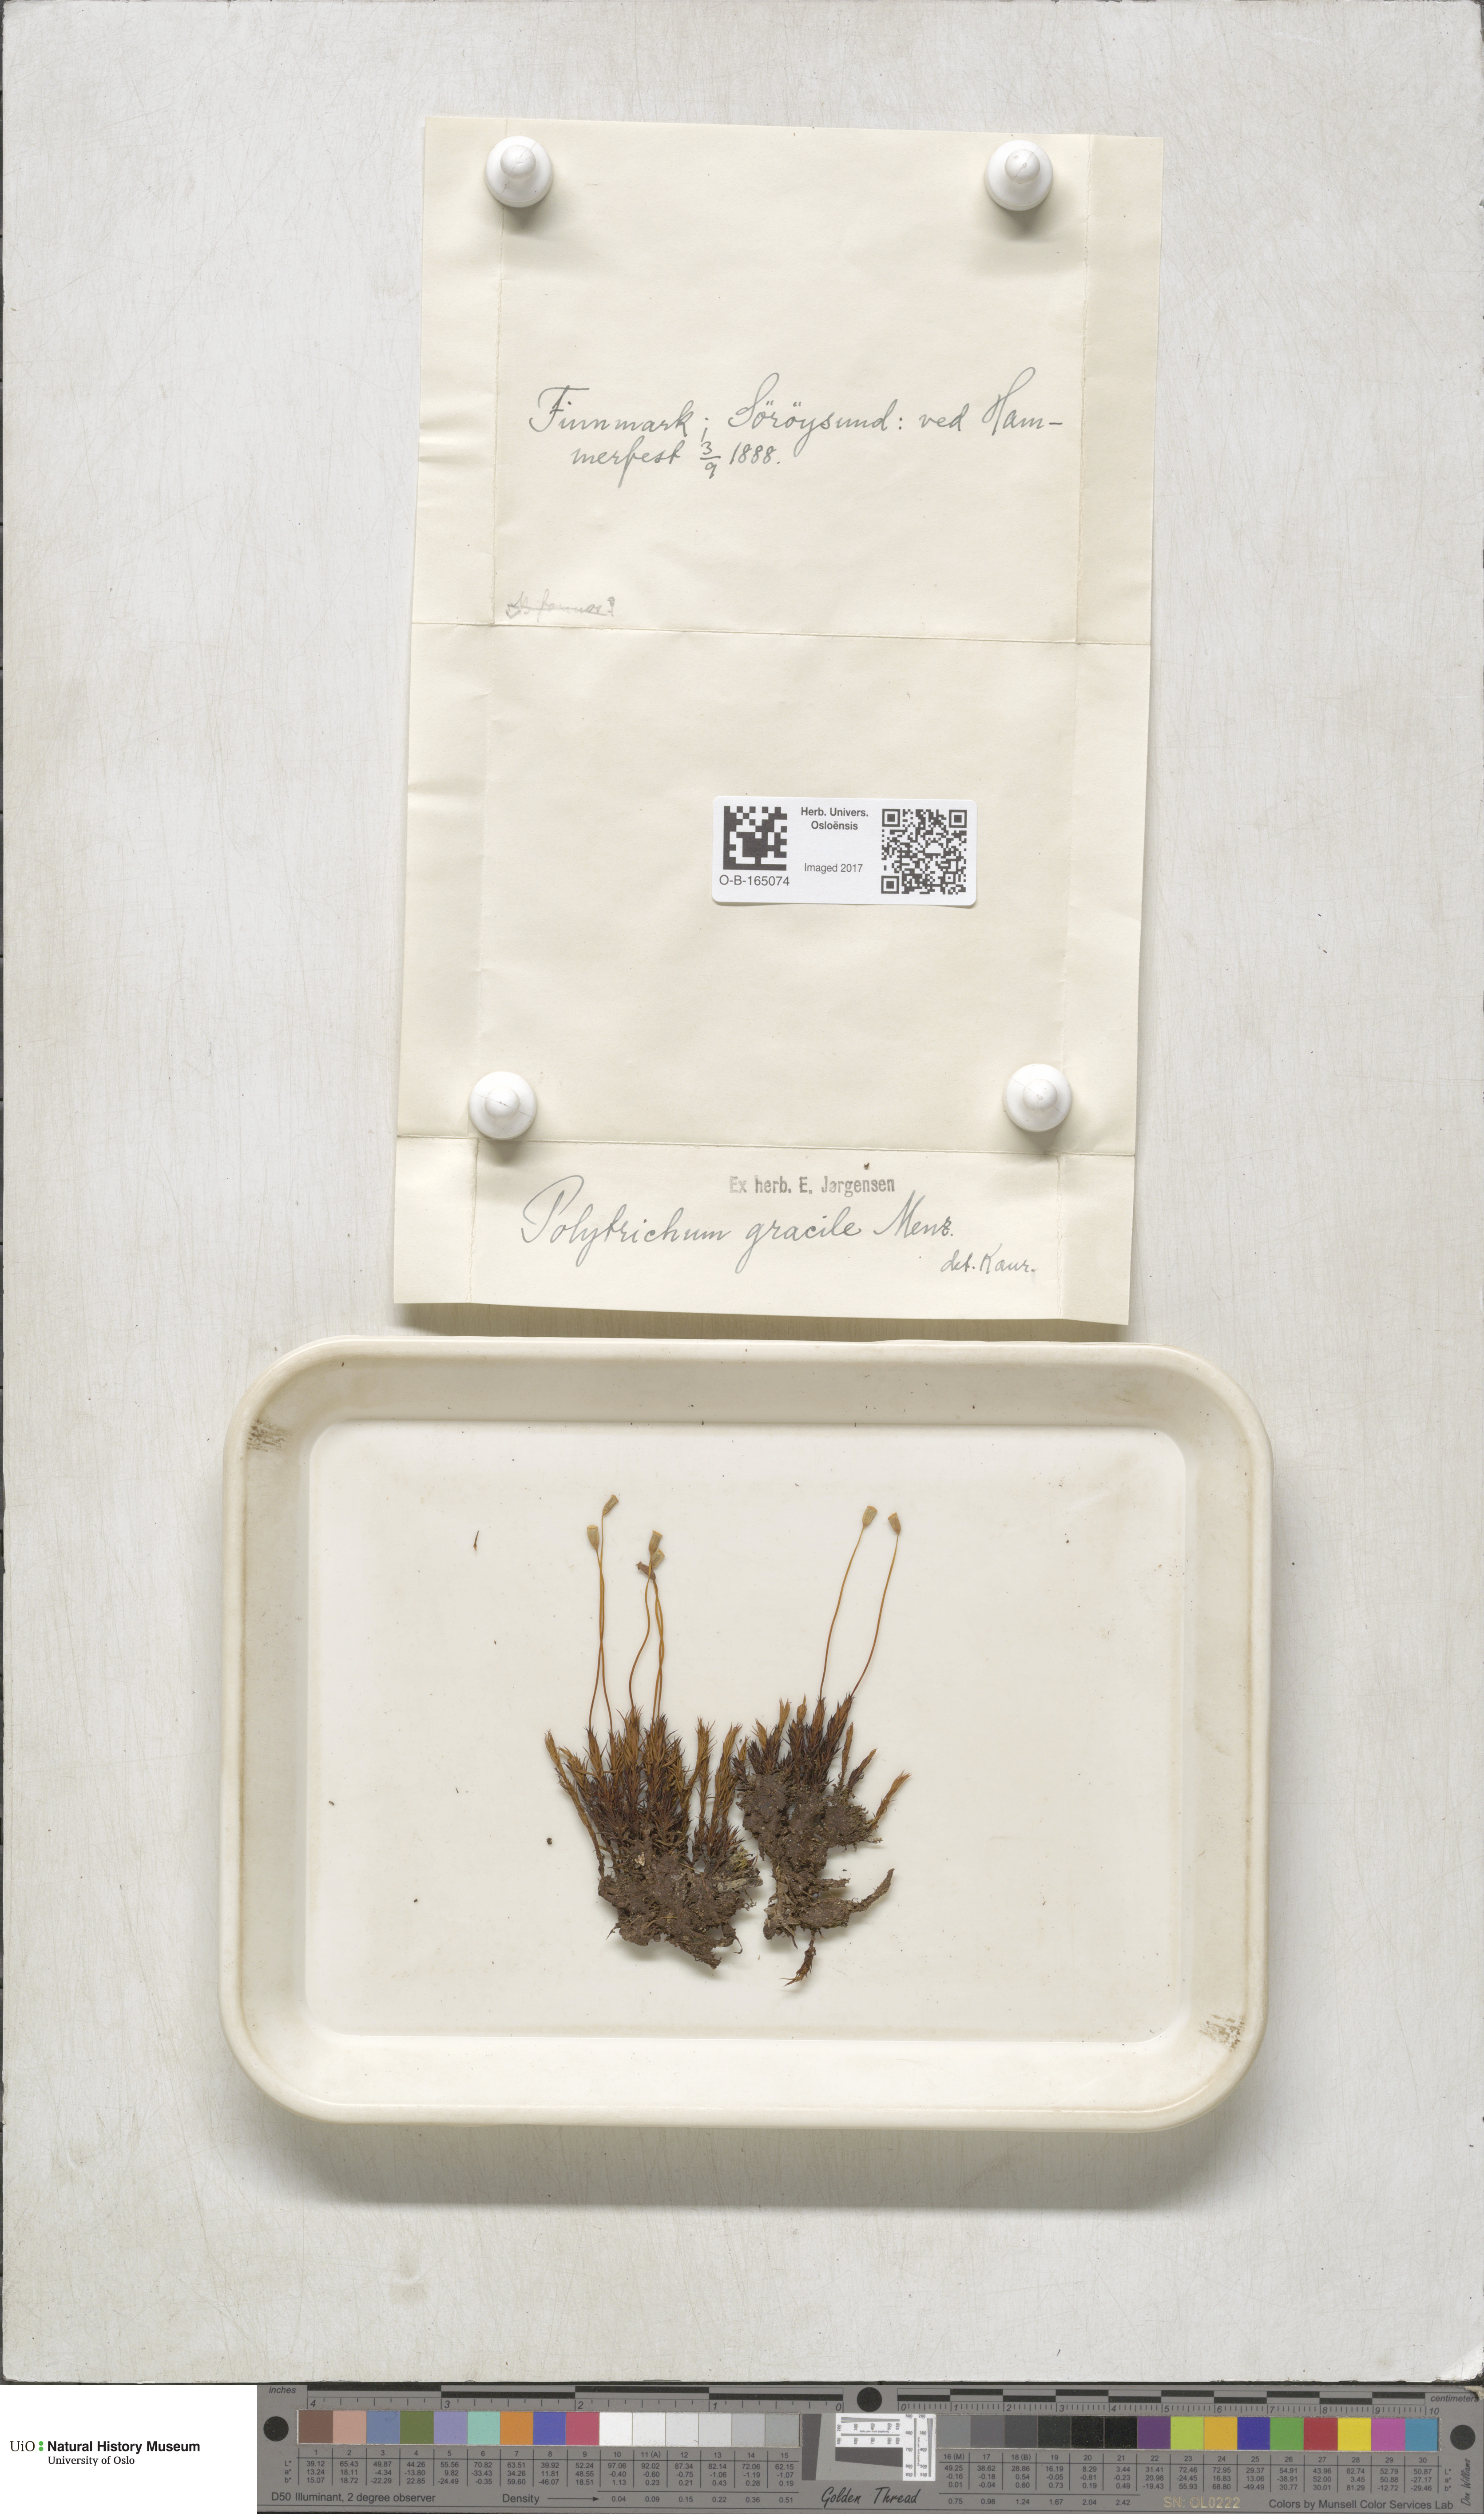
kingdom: Plantae
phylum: Bryophyta
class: Polytrichopsida
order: Polytrichales
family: Polytrichaceae
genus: Polytrichum
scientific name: Polytrichum longisetum
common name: Long-stalked haircap moss
